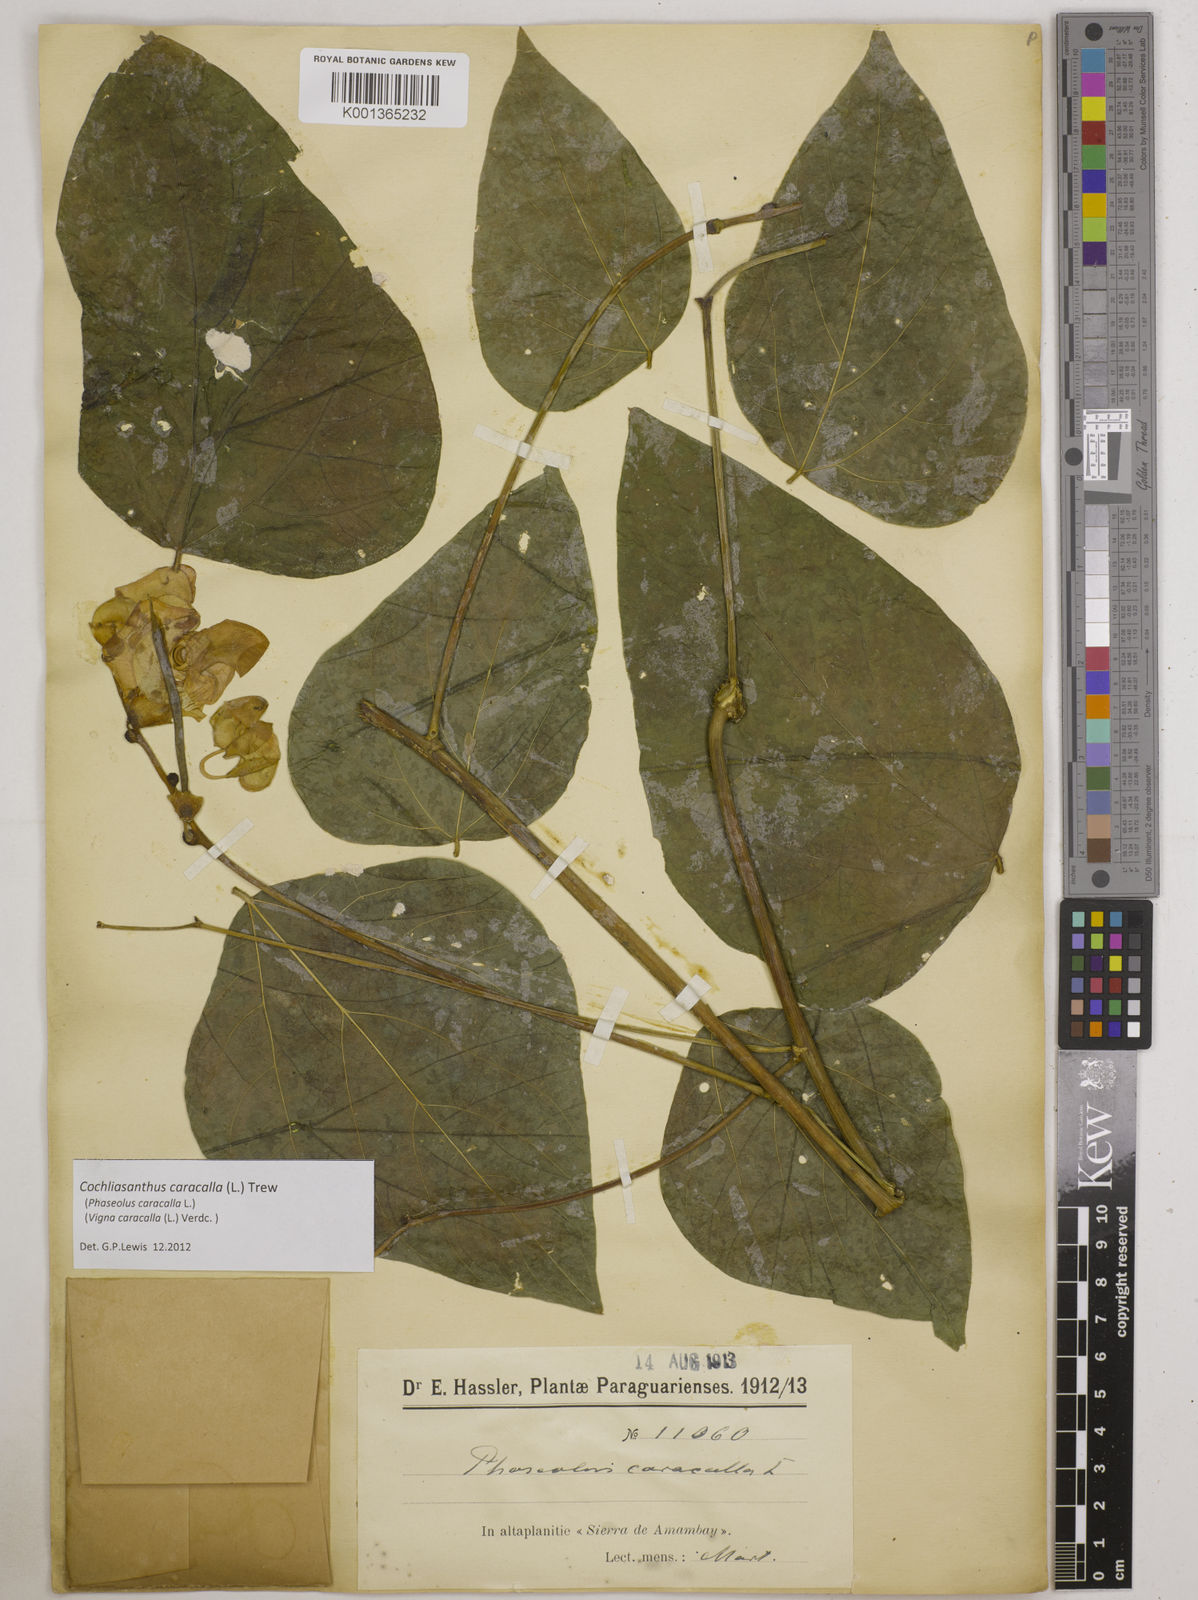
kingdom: Plantae
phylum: Tracheophyta
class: Magnoliopsida
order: Fabales
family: Fabaceae
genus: Cochliasanthus
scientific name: Cochliasanthus caracalla
